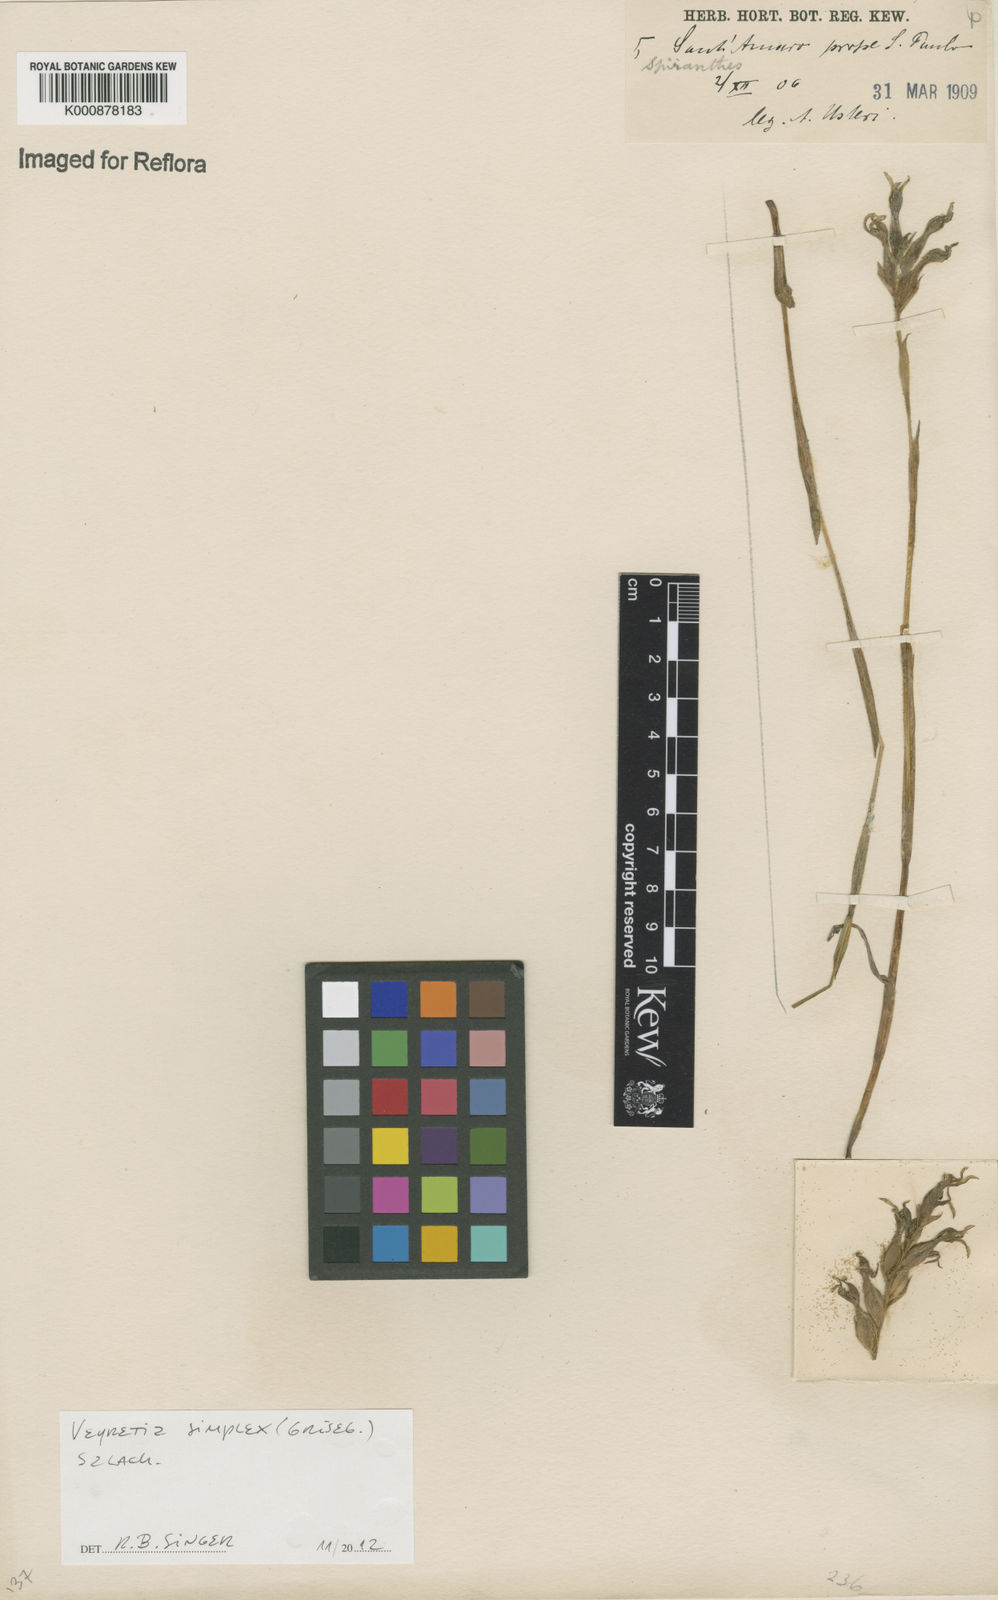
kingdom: Plantae
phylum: Tracheophyta
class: Liliopsida
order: Asparagales
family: Orchidaceae
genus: Veyretia
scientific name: Veyretia simplex
